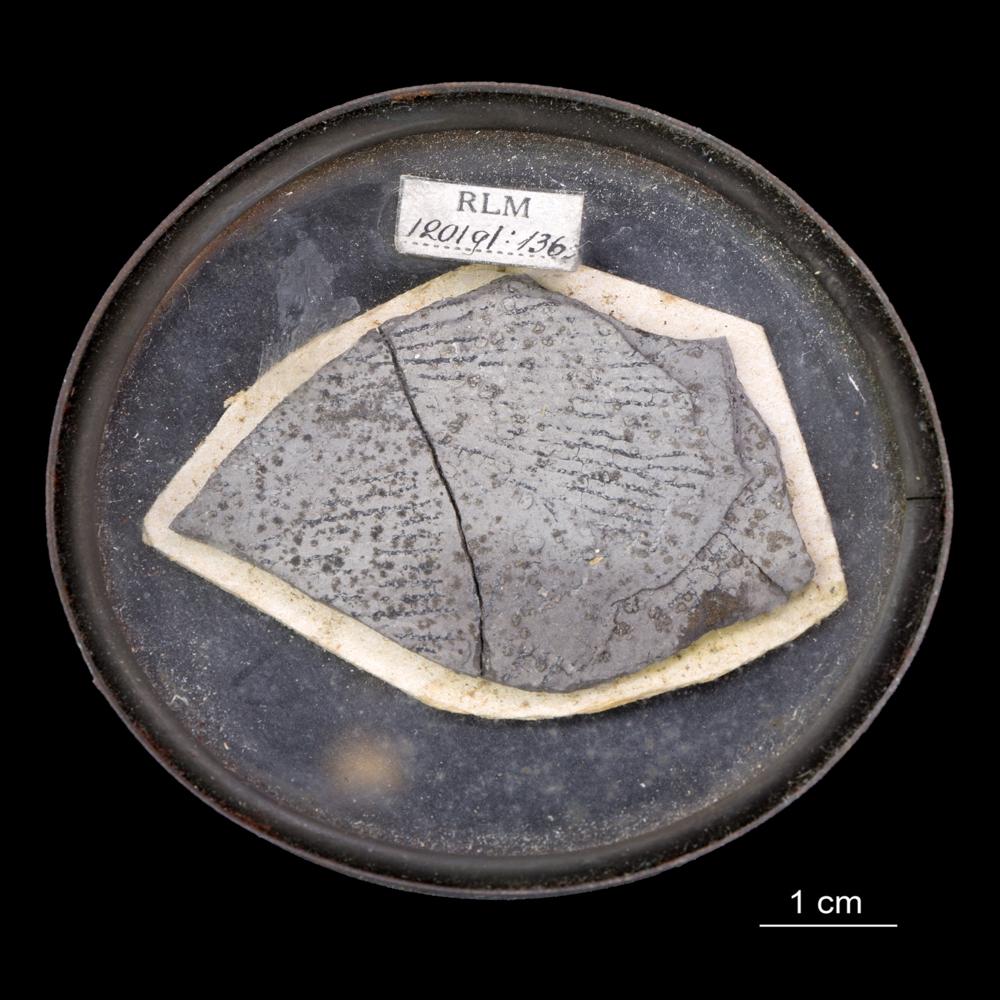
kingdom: Animalia
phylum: Hemichordata
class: Pterobranchia
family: Anisograptidae
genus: Rhabdinopora
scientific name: Rhabdinopora Gorgonia flabelliformis
